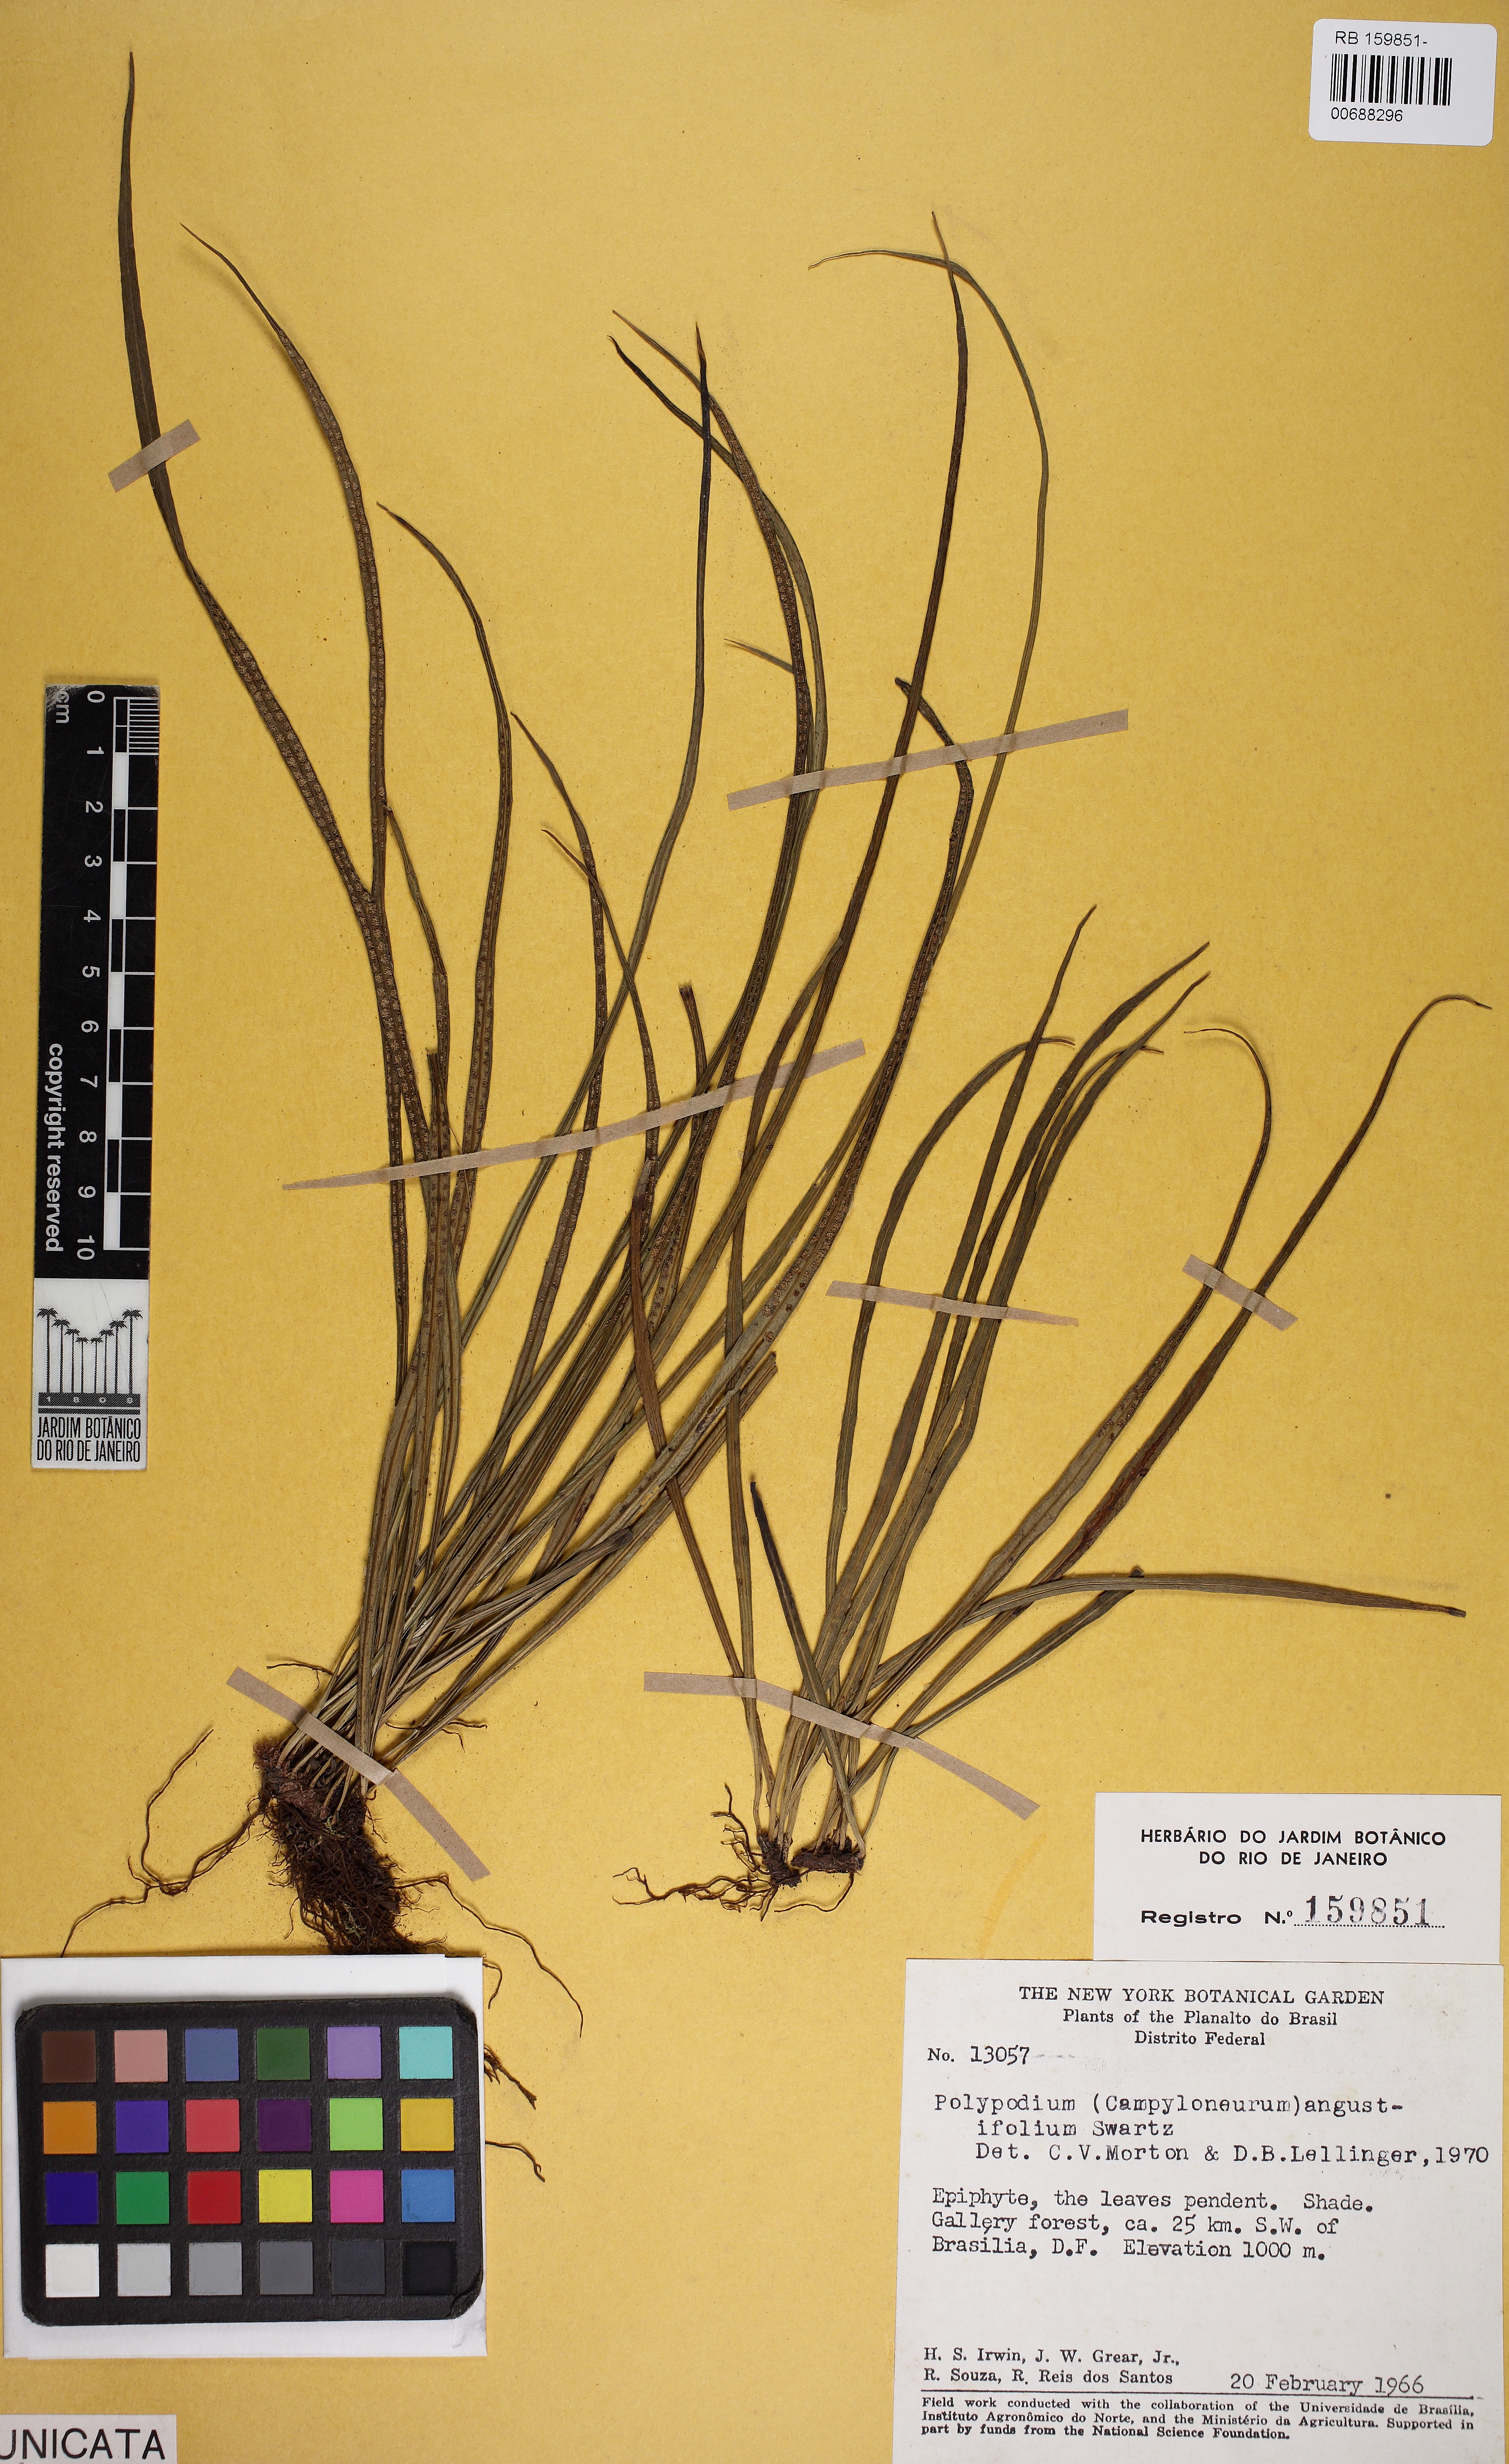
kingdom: Plantae
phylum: Tracheophyta
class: Polypodiopsida
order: Polypodiales
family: Polypodiaceae
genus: Campyloneurum
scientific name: Campyloneurum angustifolium
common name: Narrow-leaf strap fern
